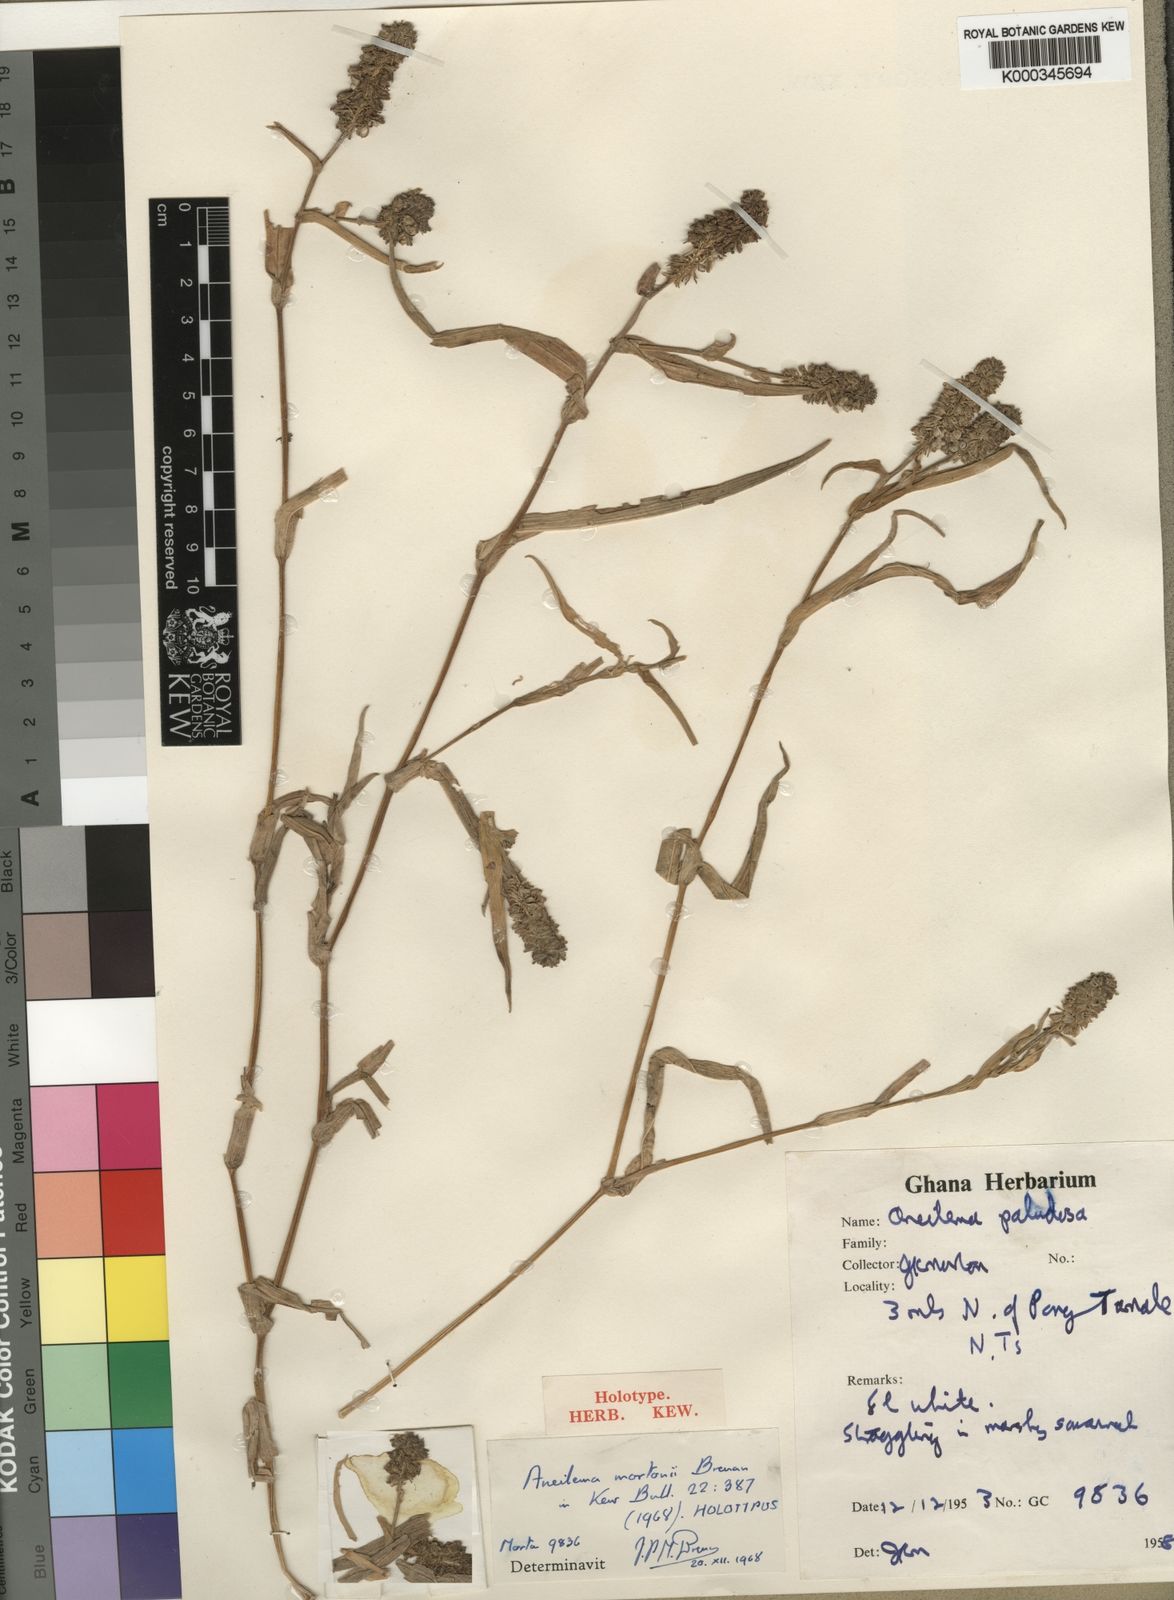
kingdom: Plantae
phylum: Tracheophyta
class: Liliopsida
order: Commelinales
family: Commelinaceae
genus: Aneilema
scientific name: Aneilema mortonii
